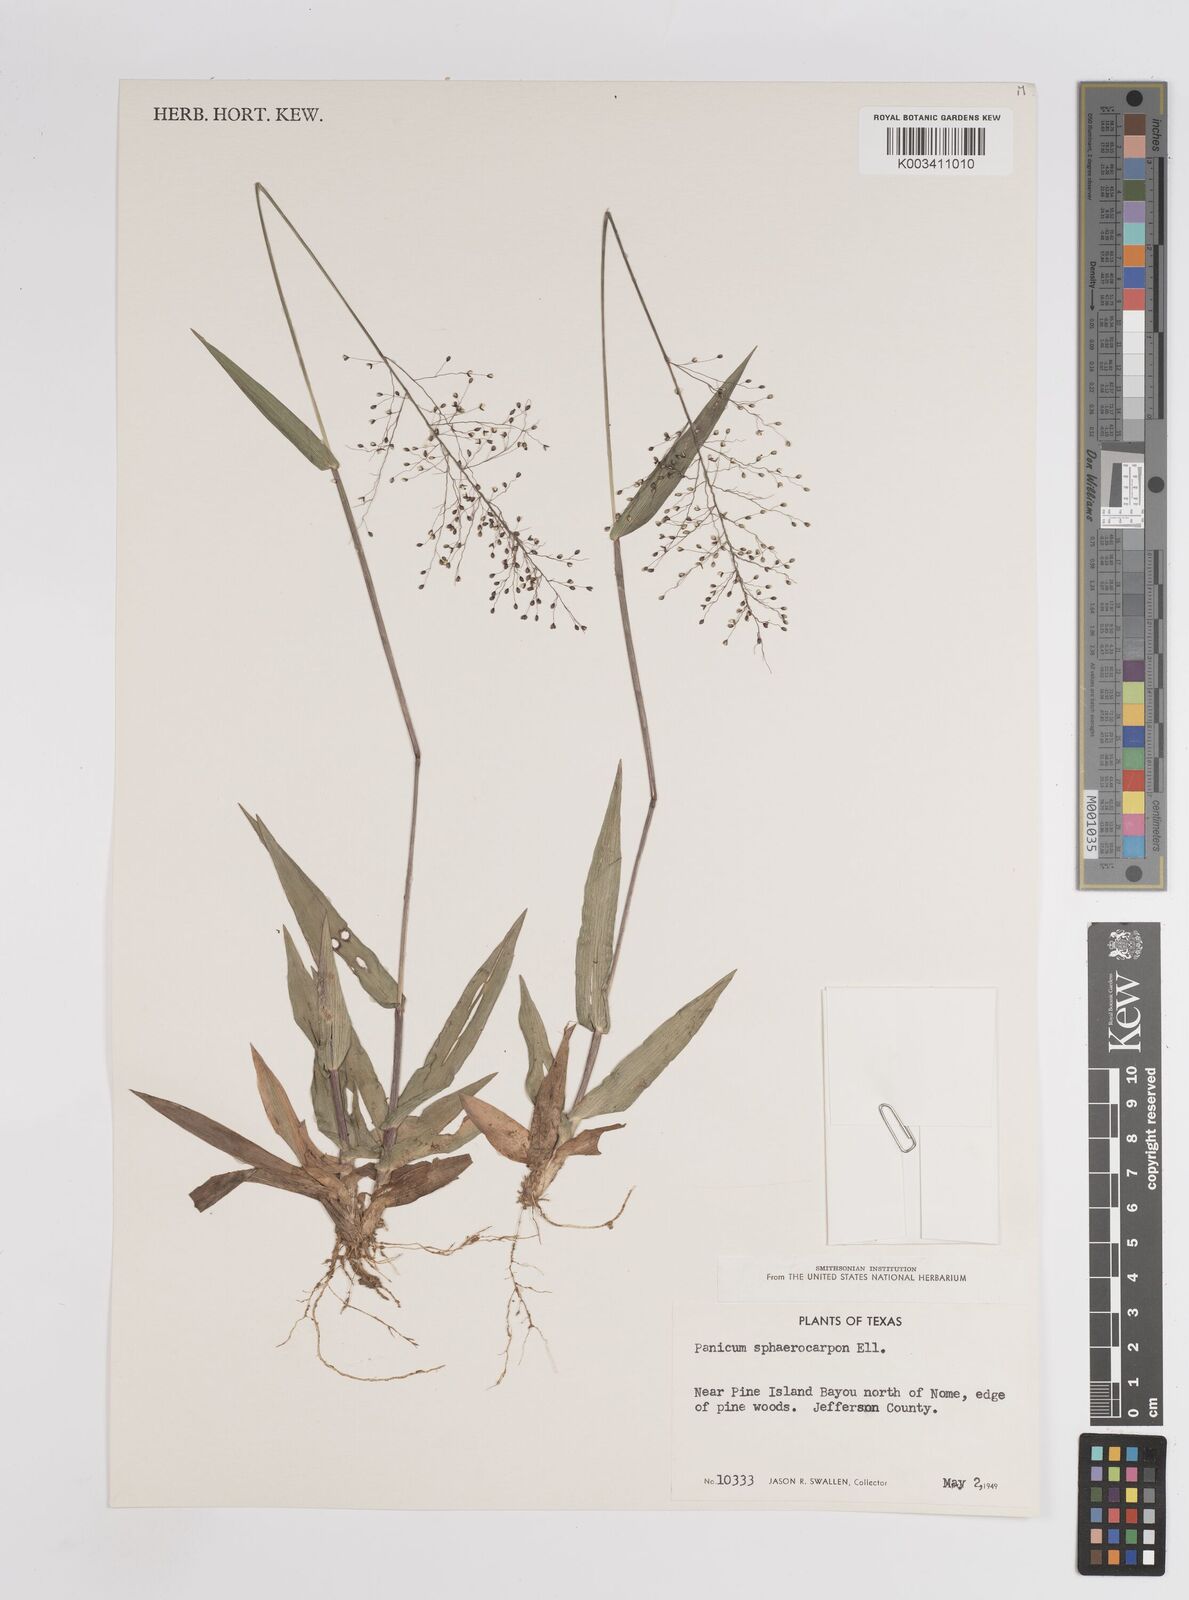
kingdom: Plantae
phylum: Tracheophyta
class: Liliopsida
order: Poales
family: Poaceae
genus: Setaria
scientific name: Setaria tenax
